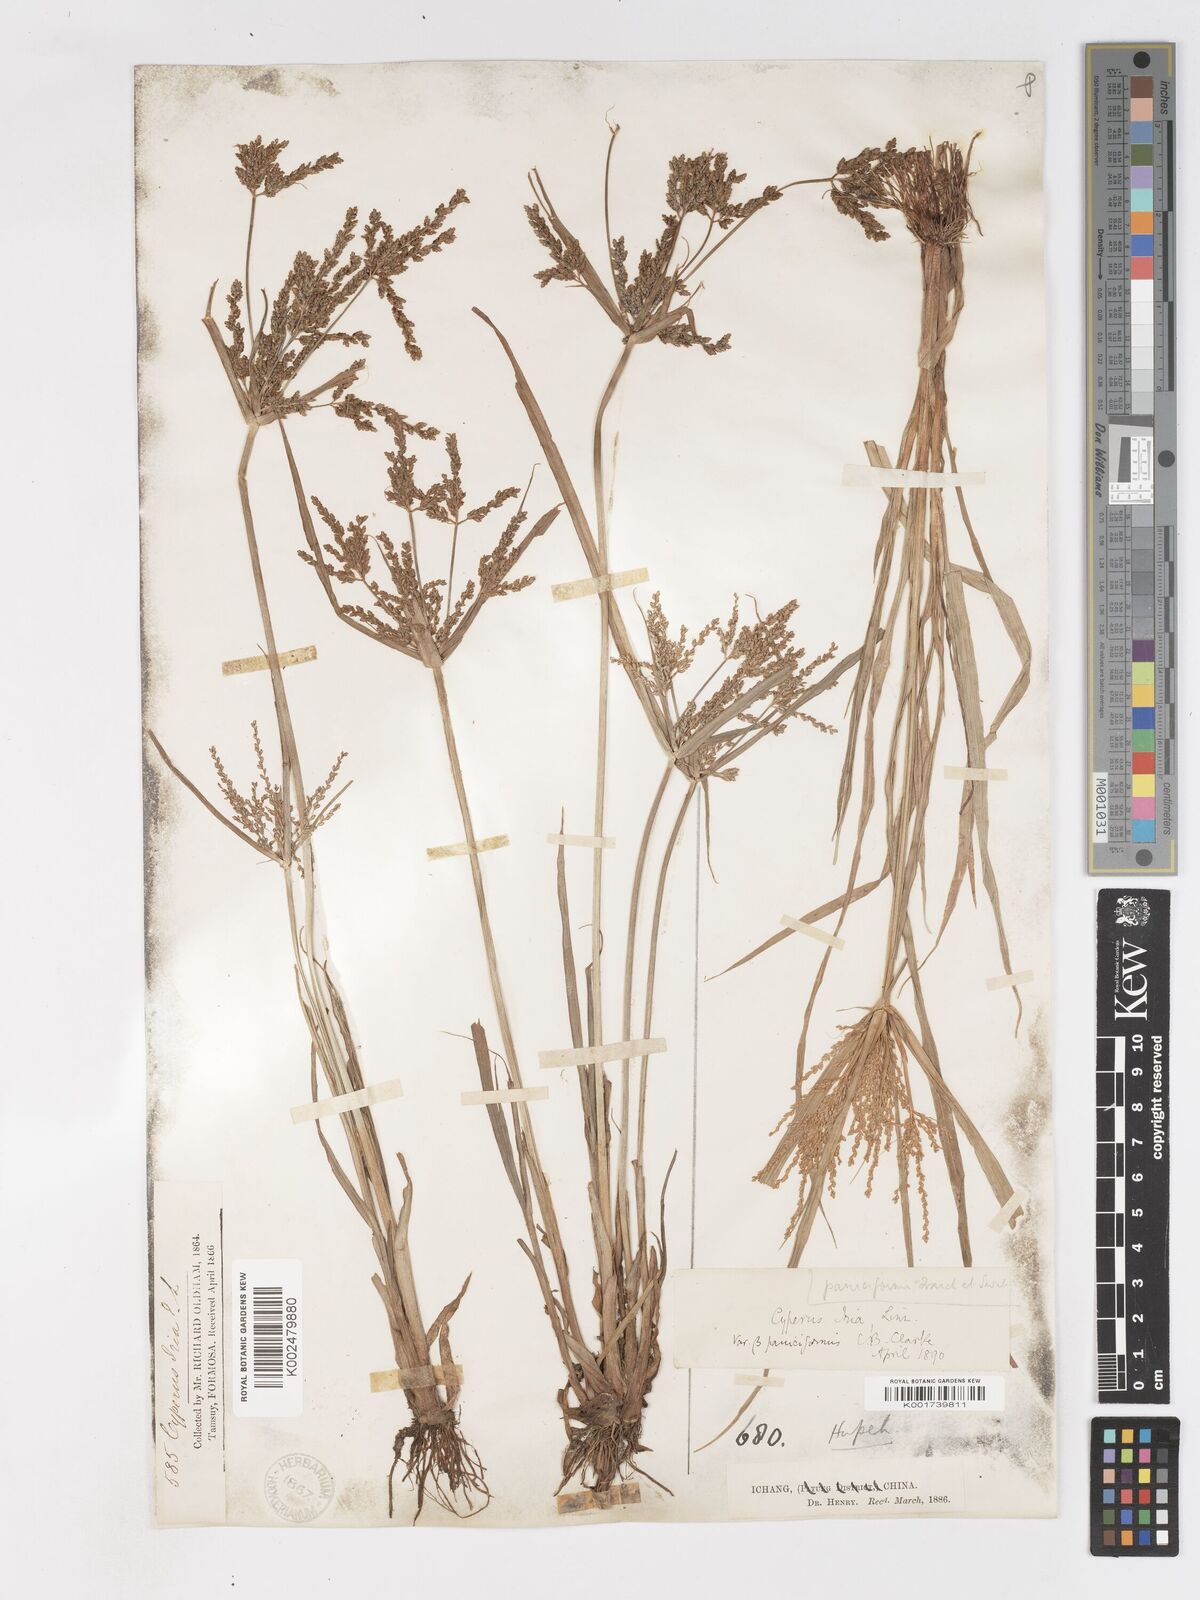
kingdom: Plantae
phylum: Tracheophyta
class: Liliopsida
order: Poales
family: Cyperaceae
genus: Cyperus
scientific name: Cyperus iria
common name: Ricefield flatsedge
